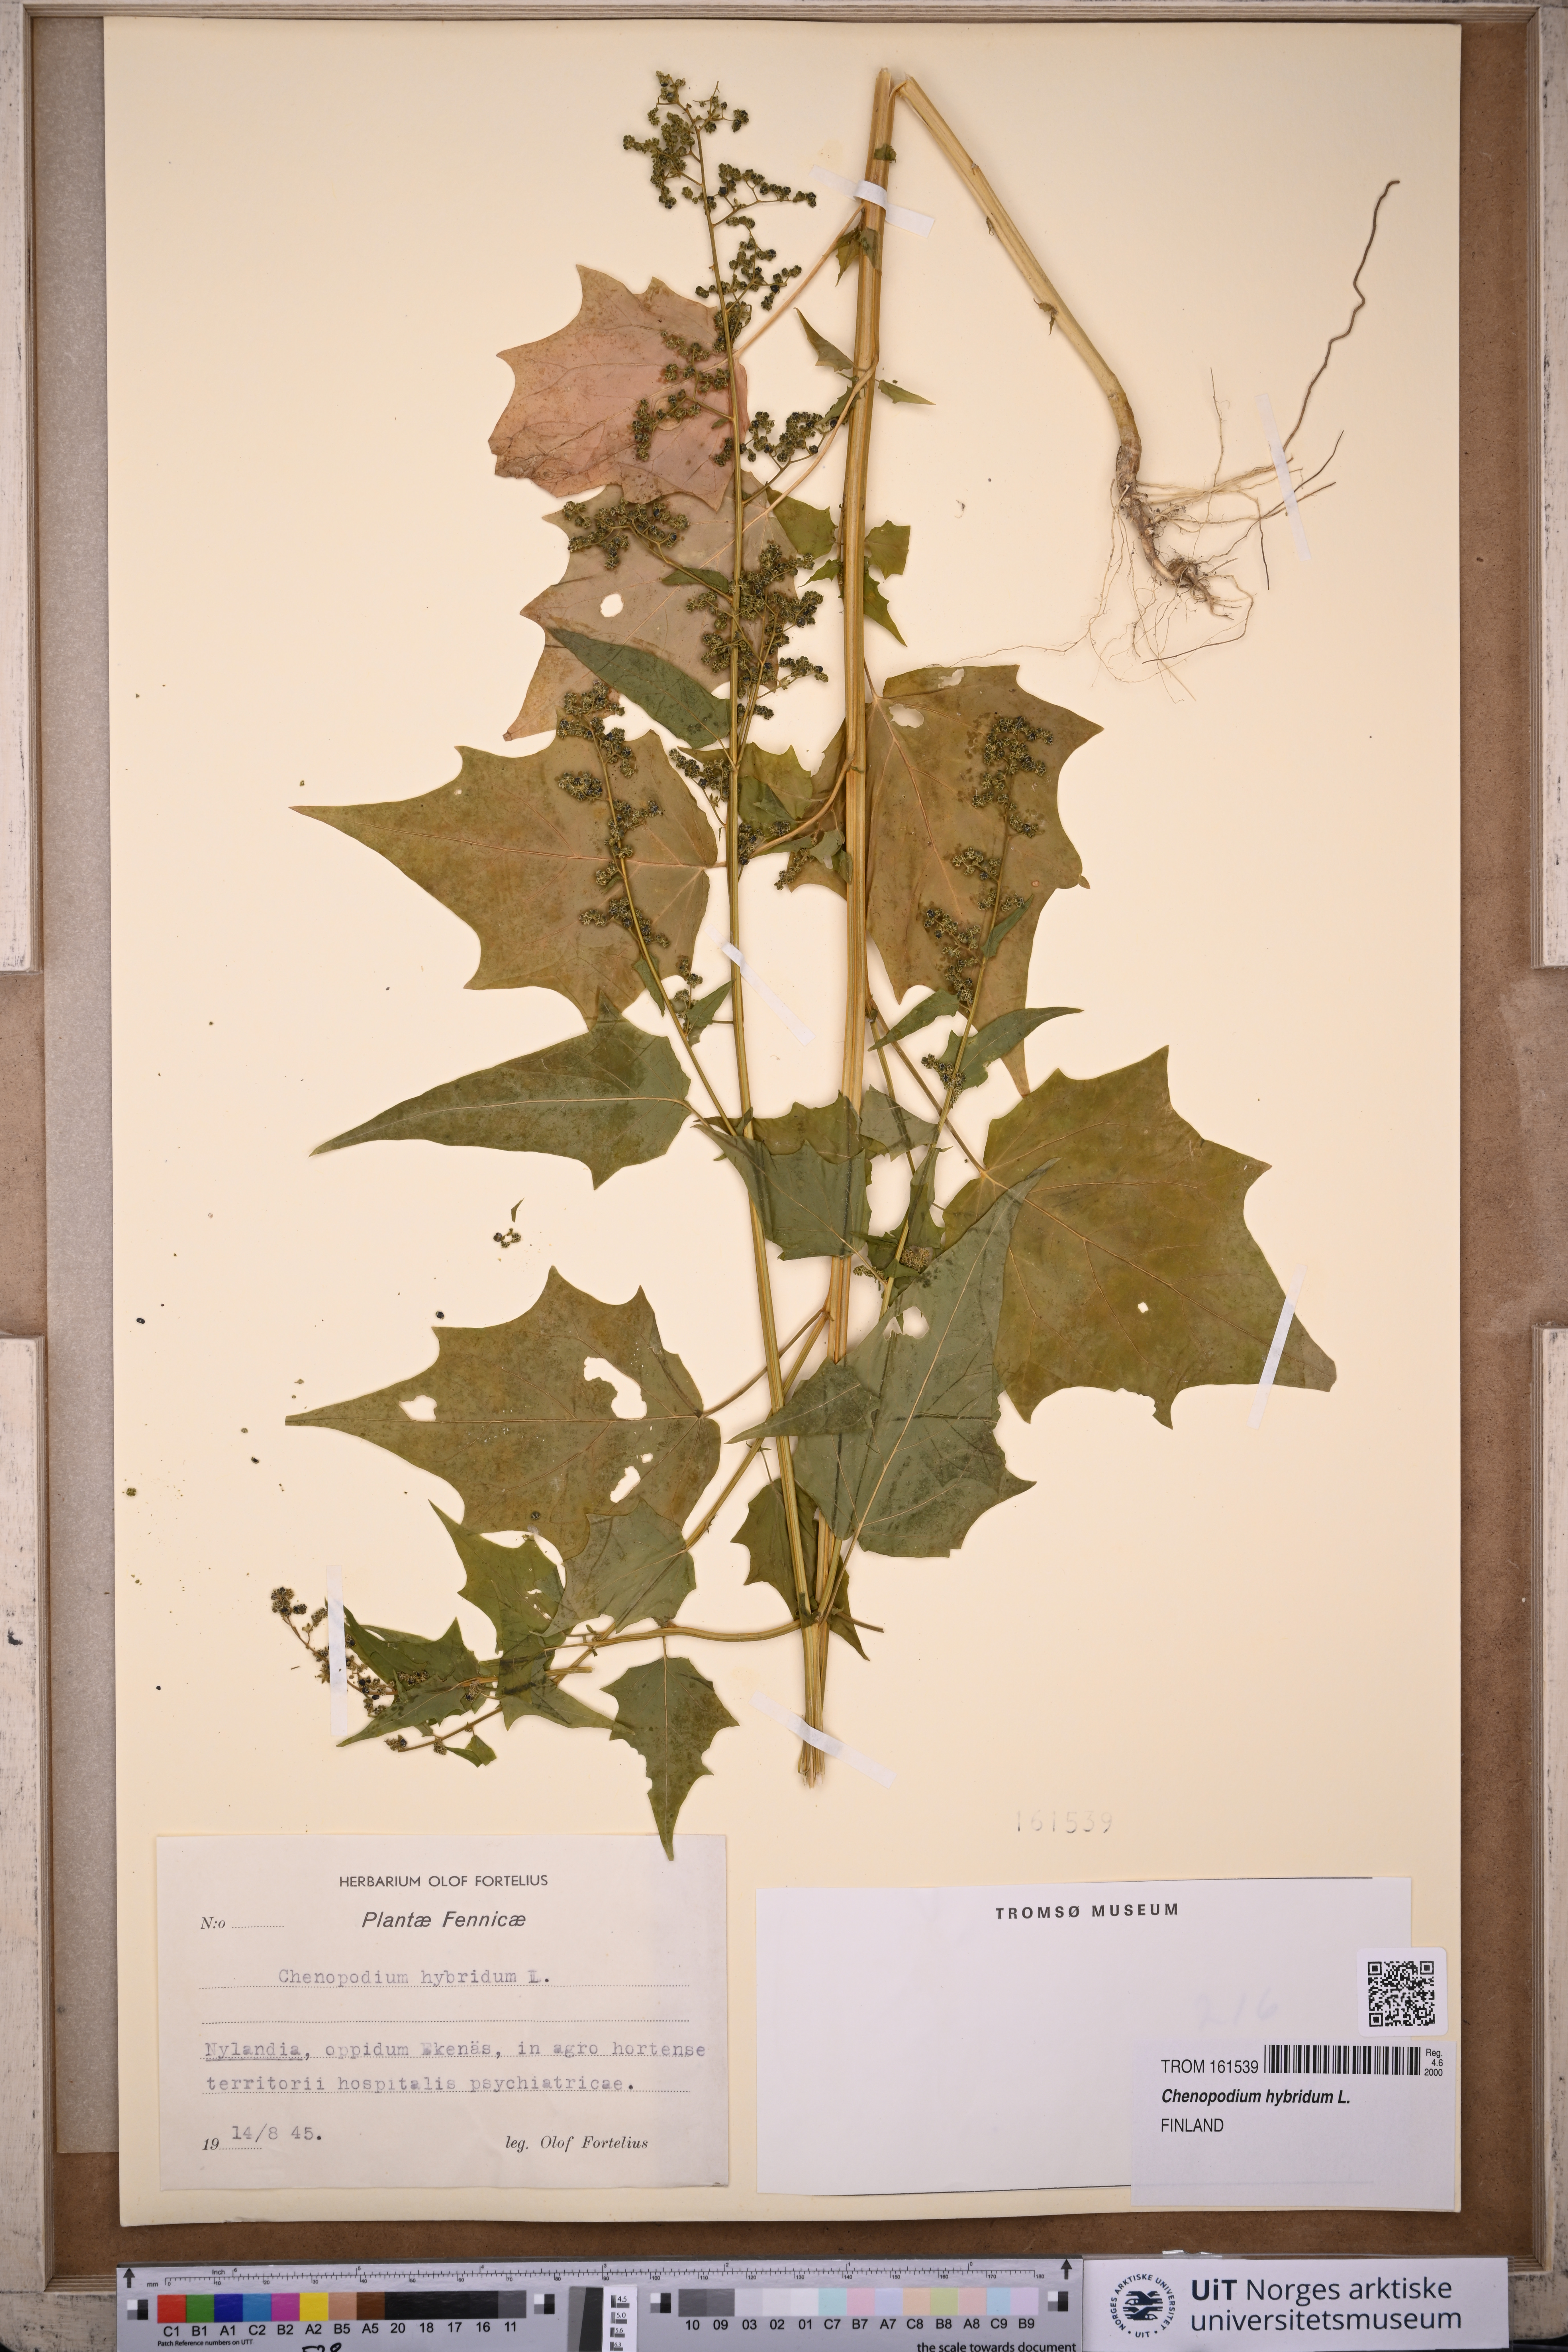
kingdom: Plantae
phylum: Tracheophyta
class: Magnoliopsida
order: Caryophyllales
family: Amaranthaceae
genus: Chenopodiastrum
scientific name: Chenopodiastrum hybridum
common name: Mapleleaf goosefoot
